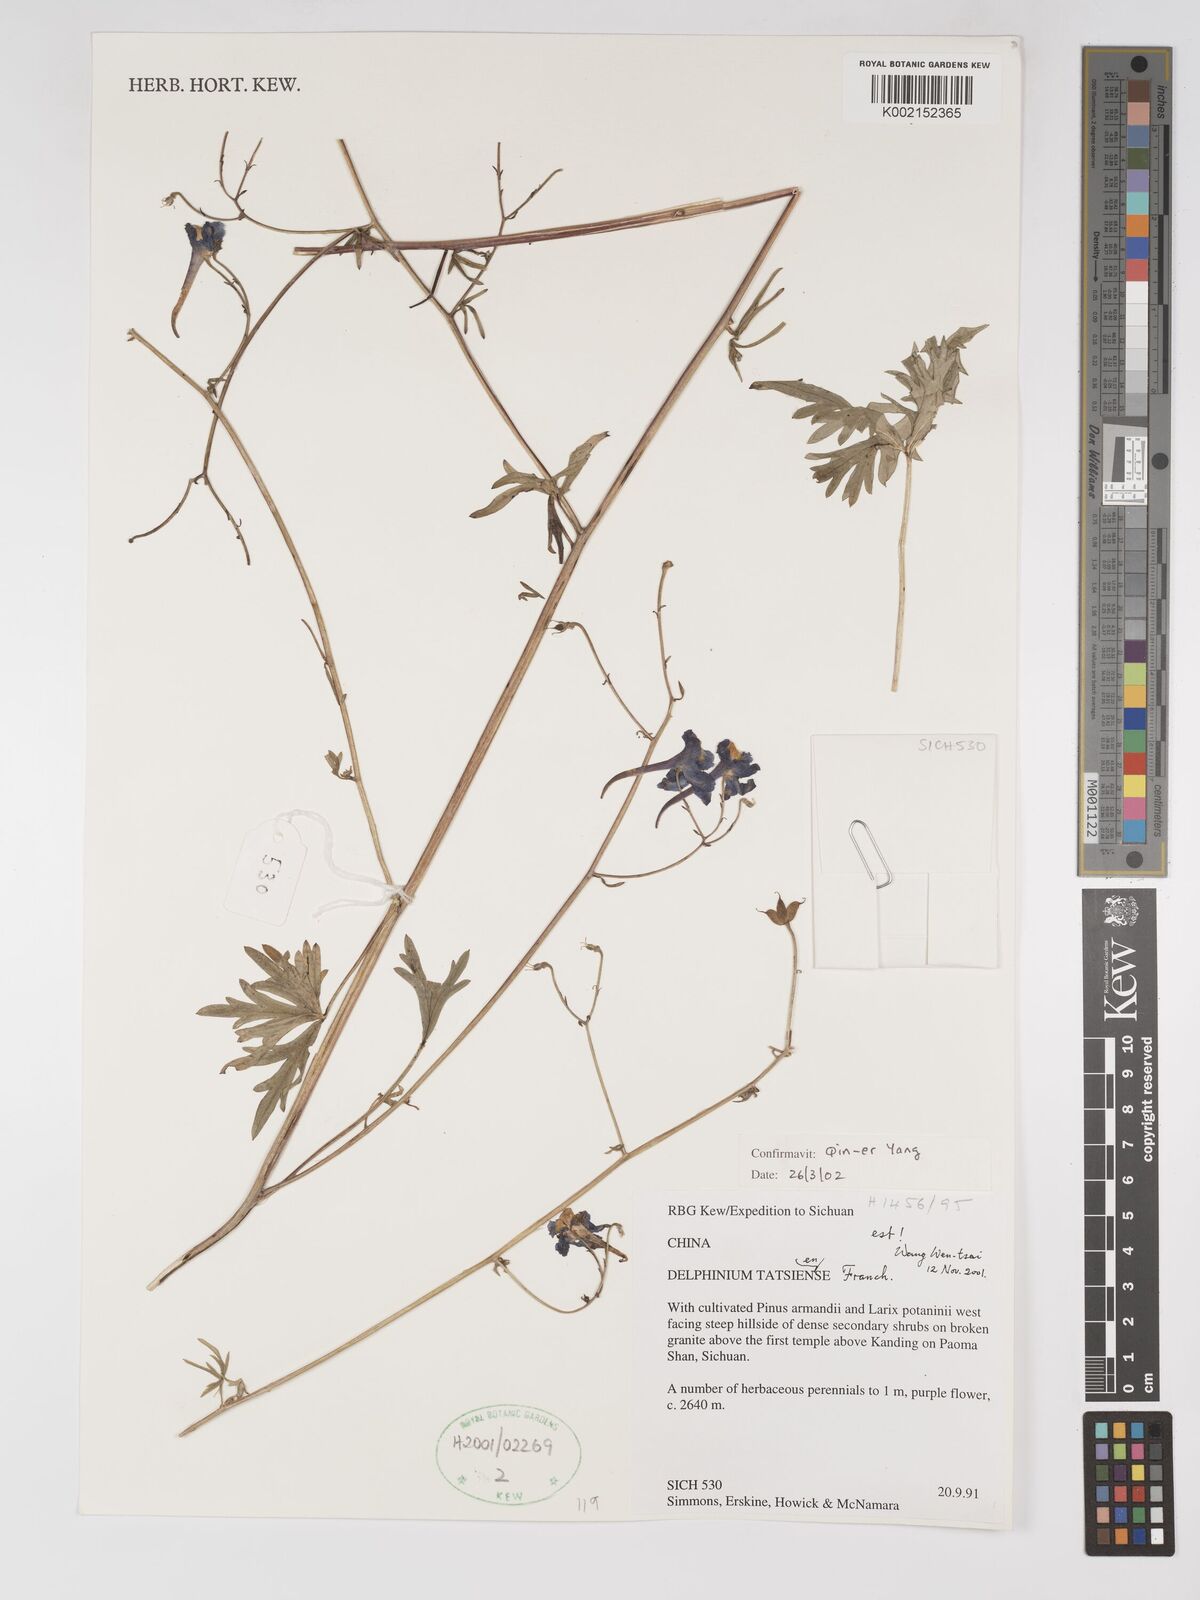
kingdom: Plantae
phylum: Tracheophyta
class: Magnoliopsida
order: Ranunculales
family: Ranunculaceae
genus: Delphinium
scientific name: Delphinium tatsienense
